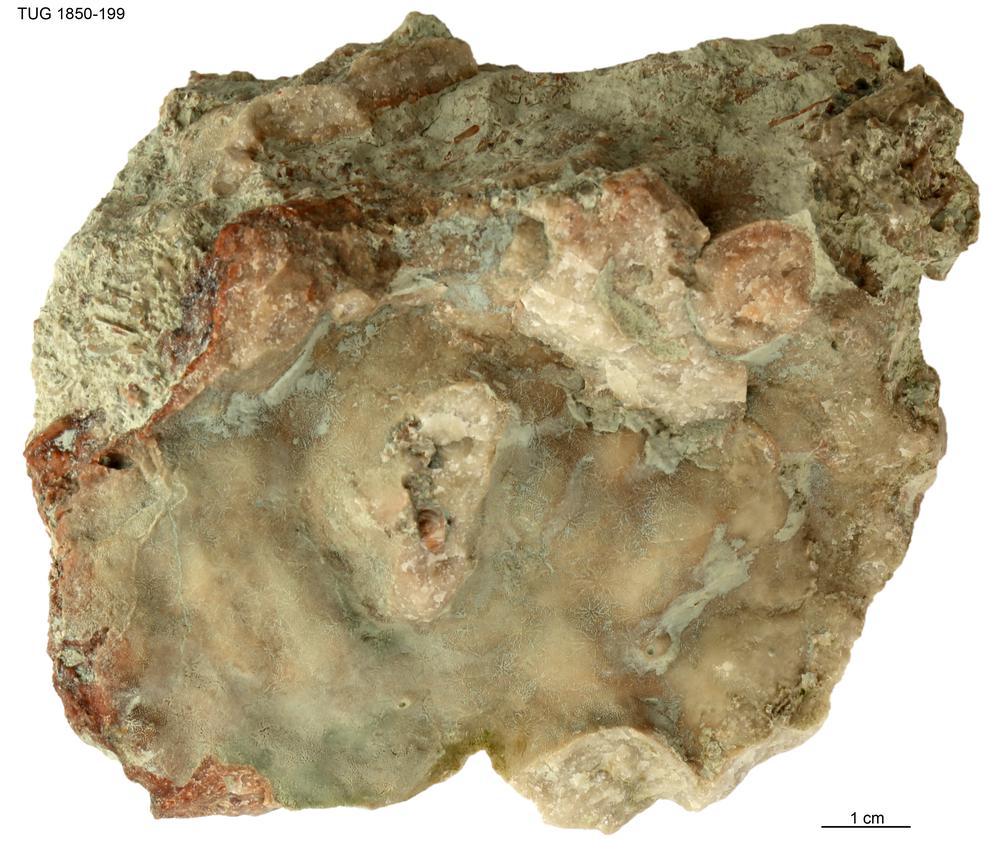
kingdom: Animalia
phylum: Porifera
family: Stromatoporidae
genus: Stromatopora
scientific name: Stromatopora
